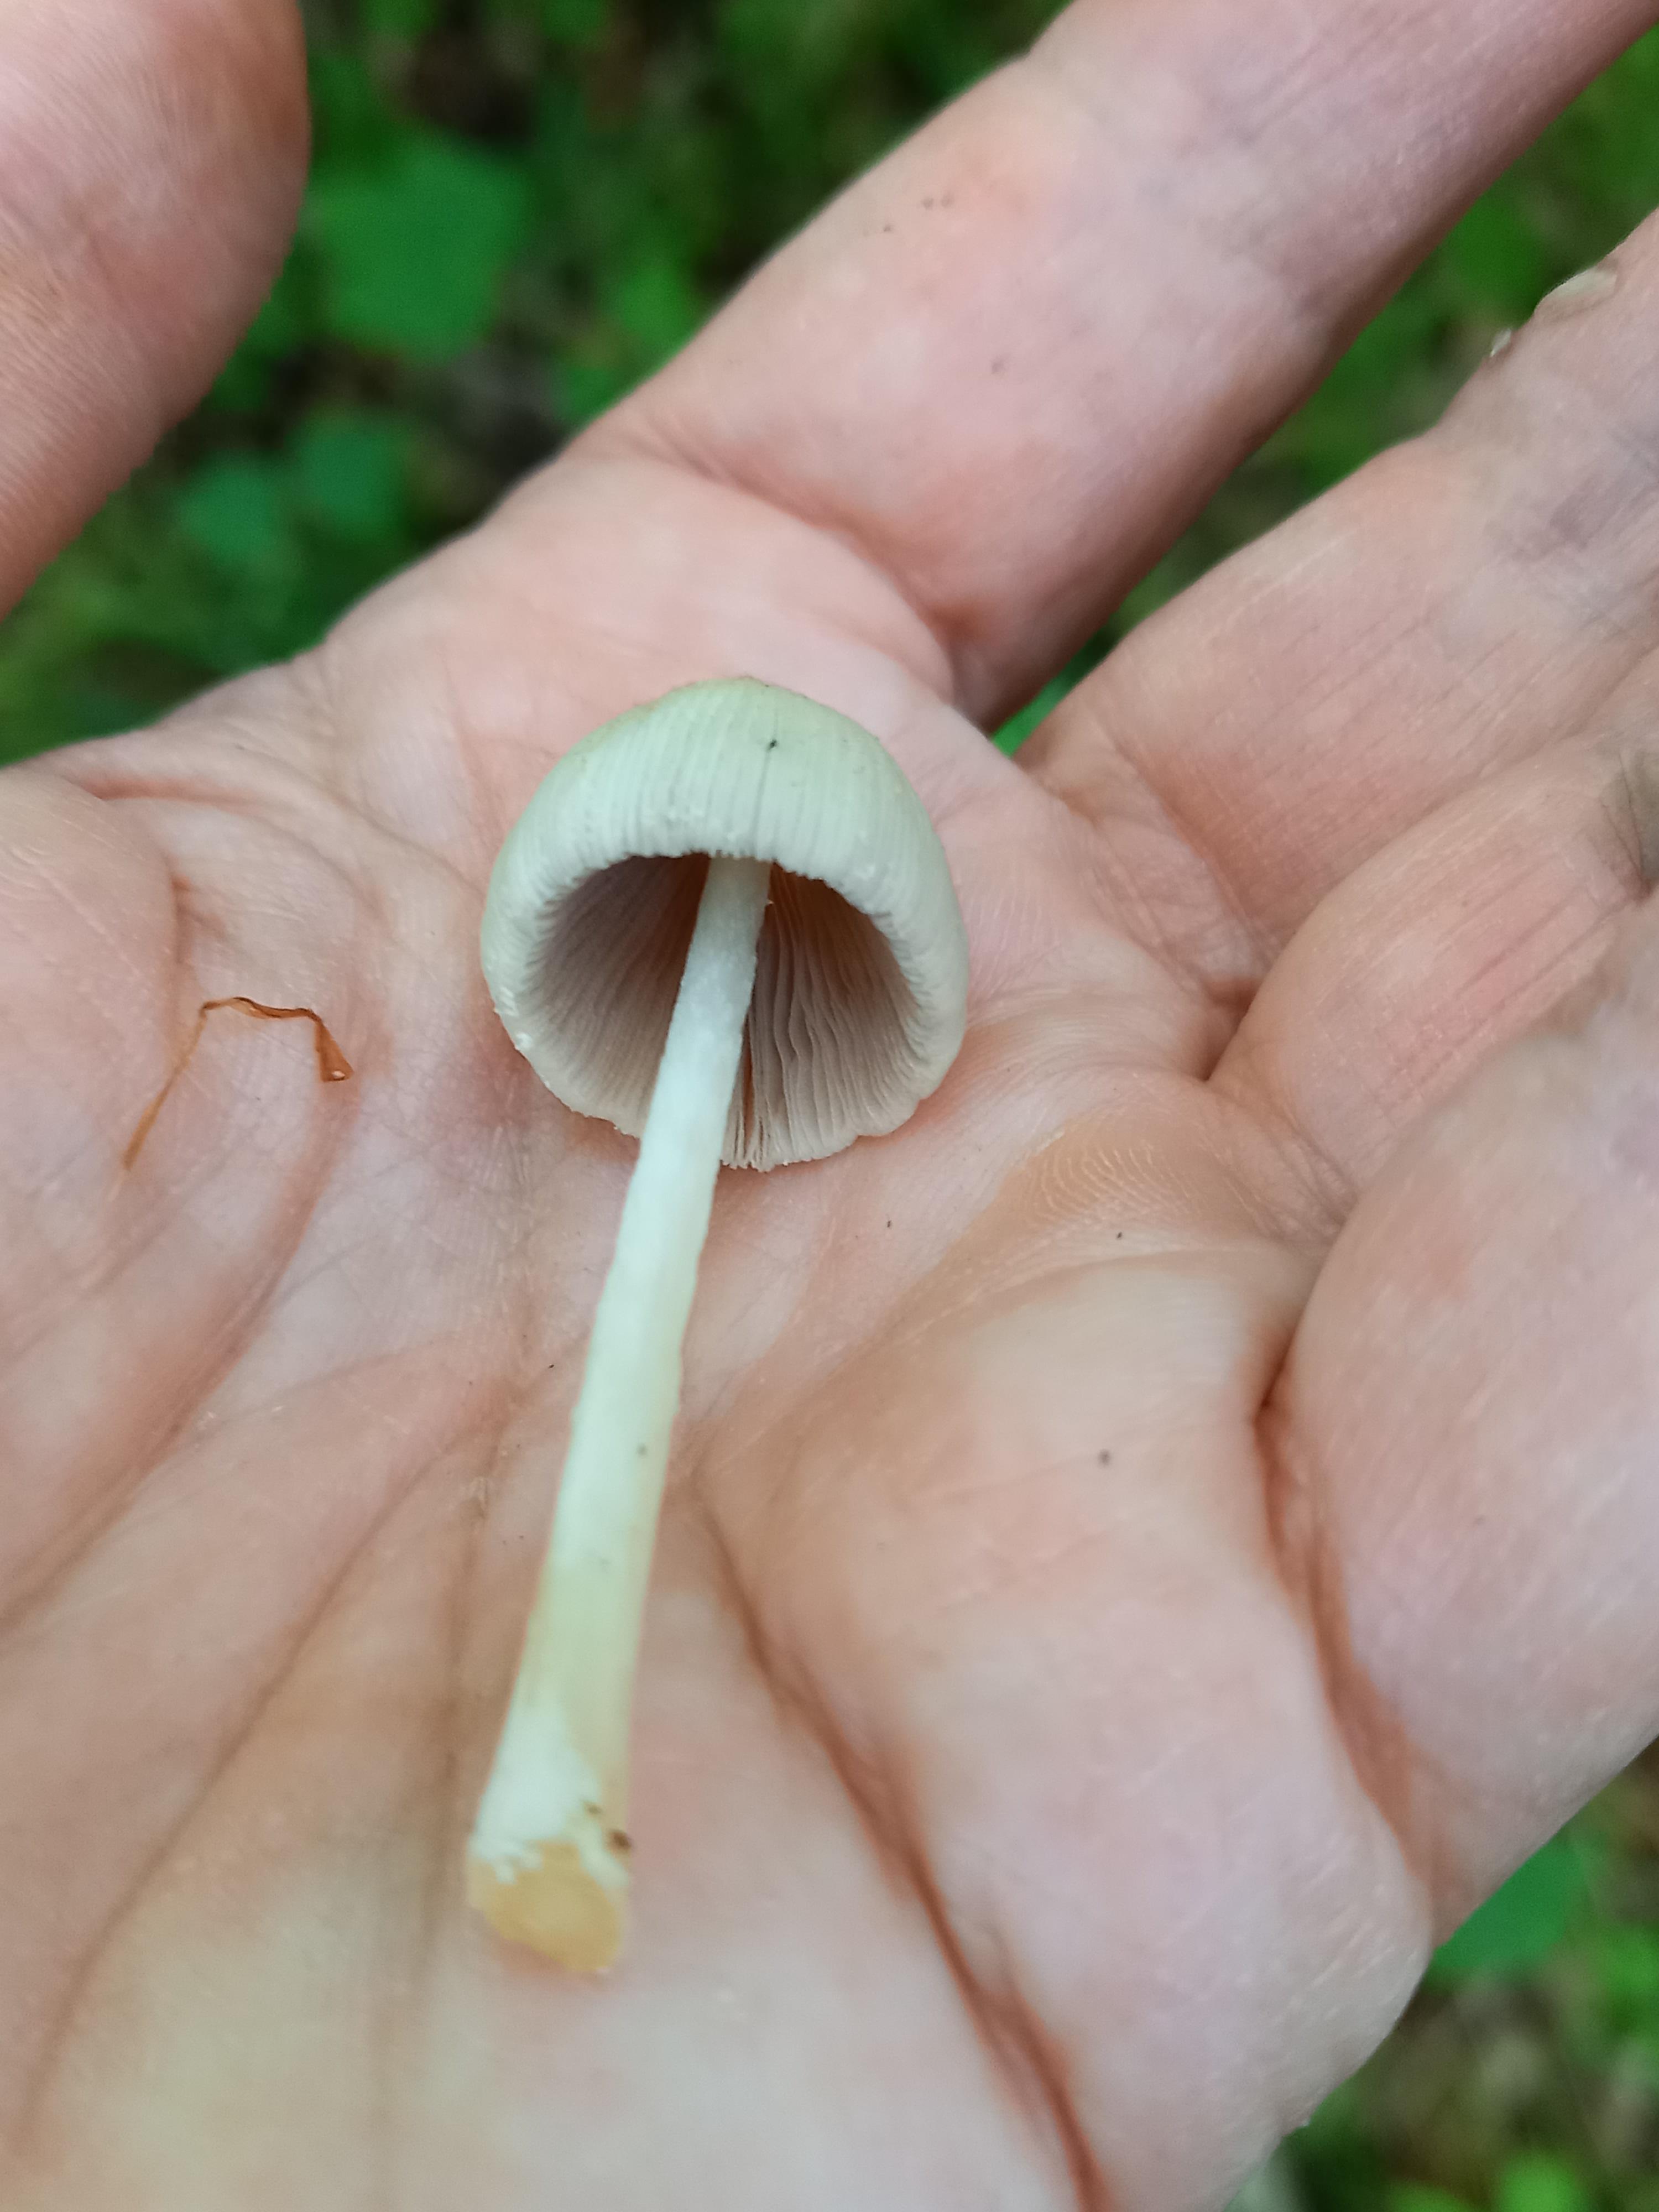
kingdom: Fungi
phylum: Basidiomycota
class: Agaricomycetes
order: Agaricales
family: Psathyrellaceae
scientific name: Psathyrellaceae
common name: mørkhatfamilien
